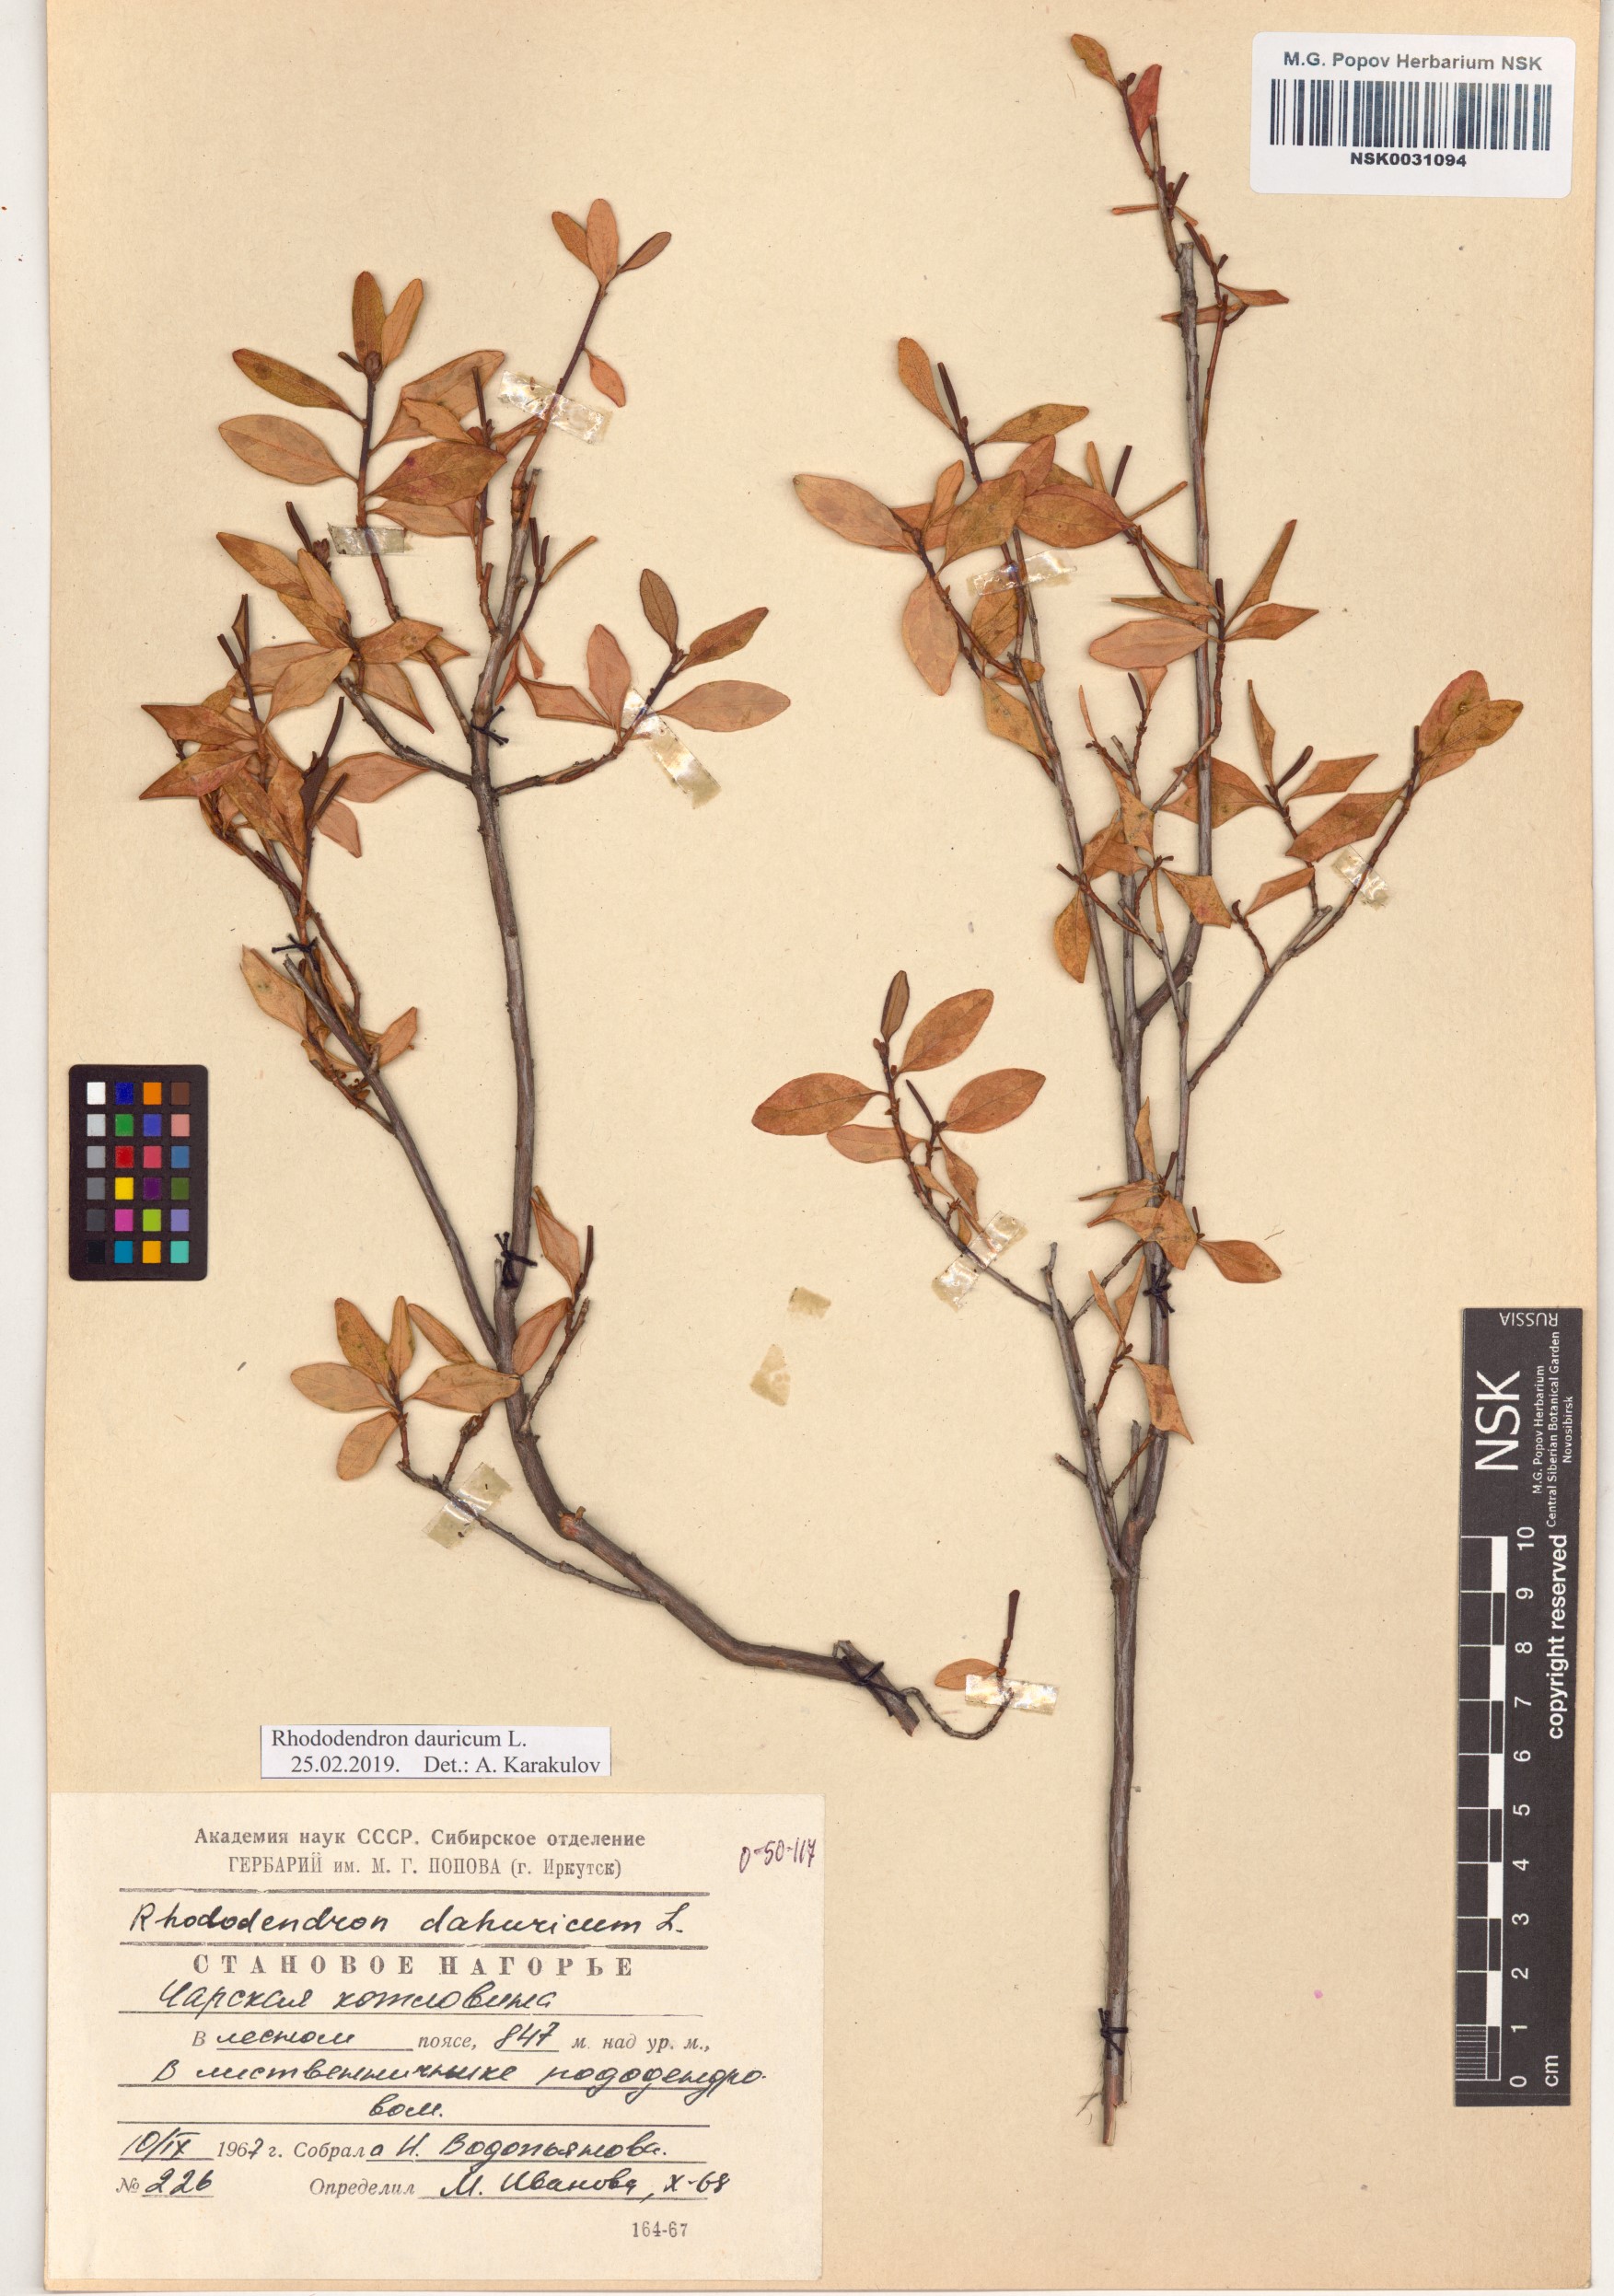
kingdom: Plantae
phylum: Tracheophyta
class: Magnoliopsida
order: Ericales
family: Ericaceae
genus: Rhododendron
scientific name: Rhododendron dauricum
